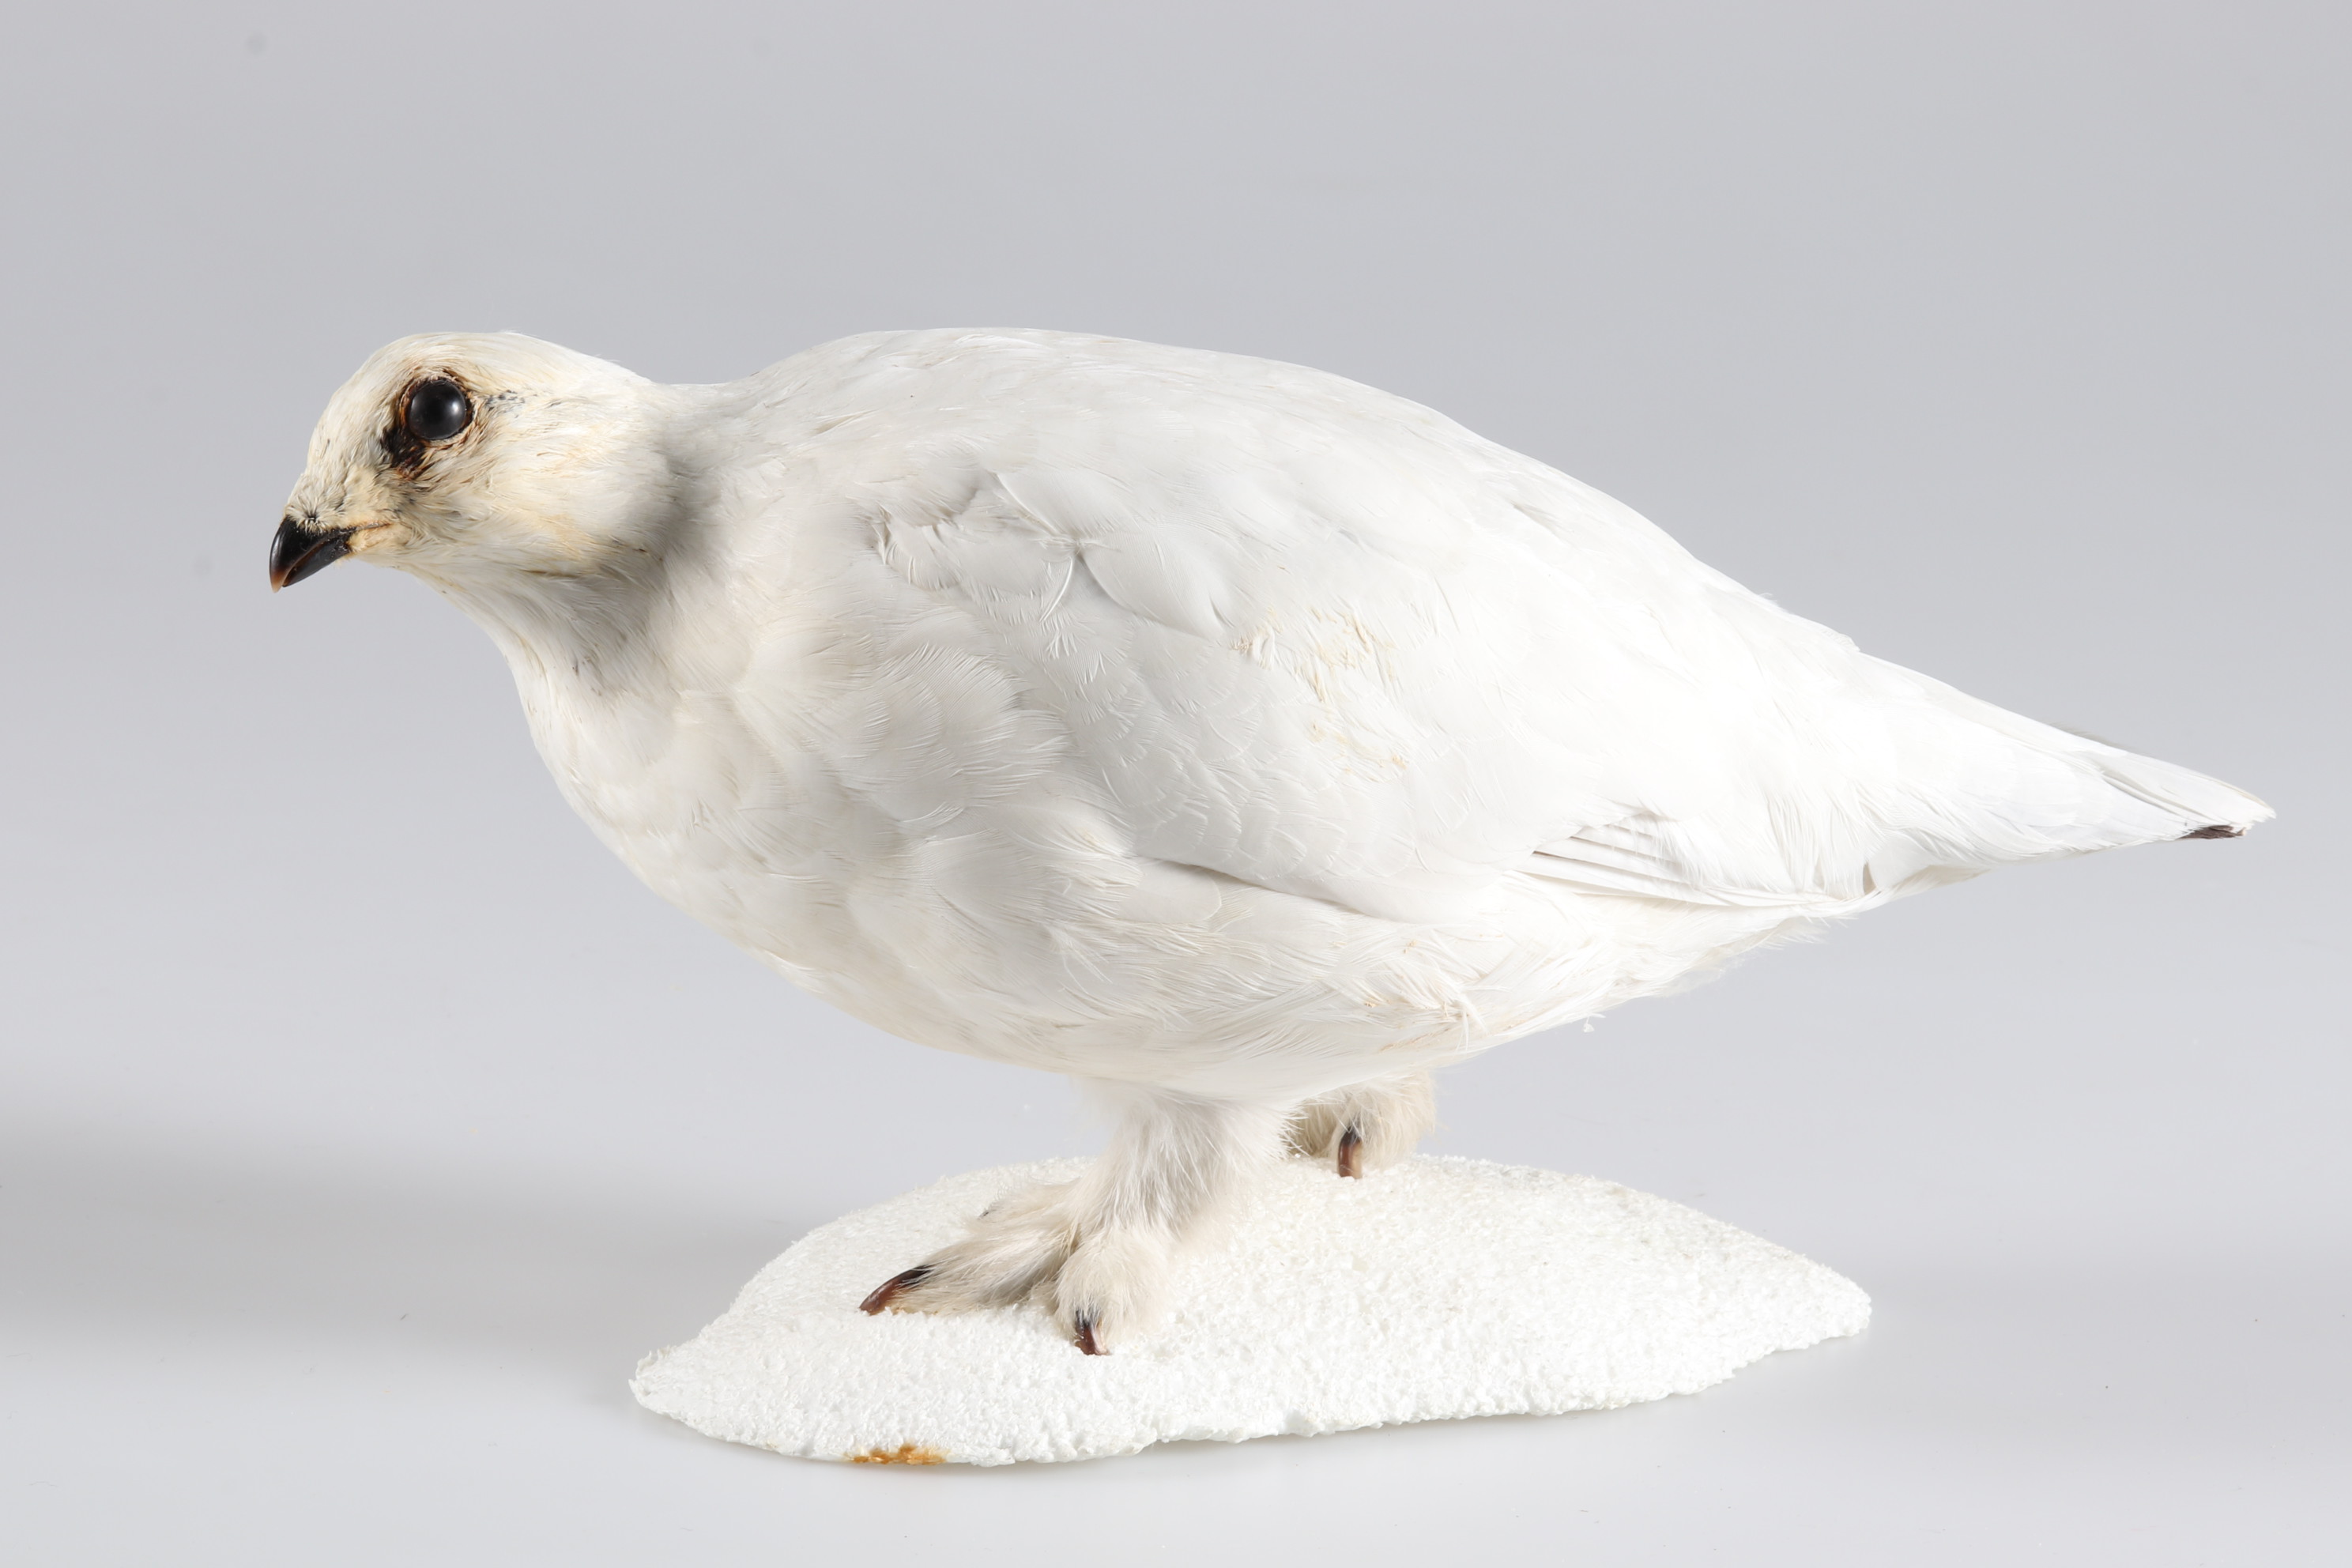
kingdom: Animalia
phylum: Chordata
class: Aves
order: Galliformes
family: Phasianidae
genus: Lagopus
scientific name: Lagopus muta
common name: Rock ptarmigan
